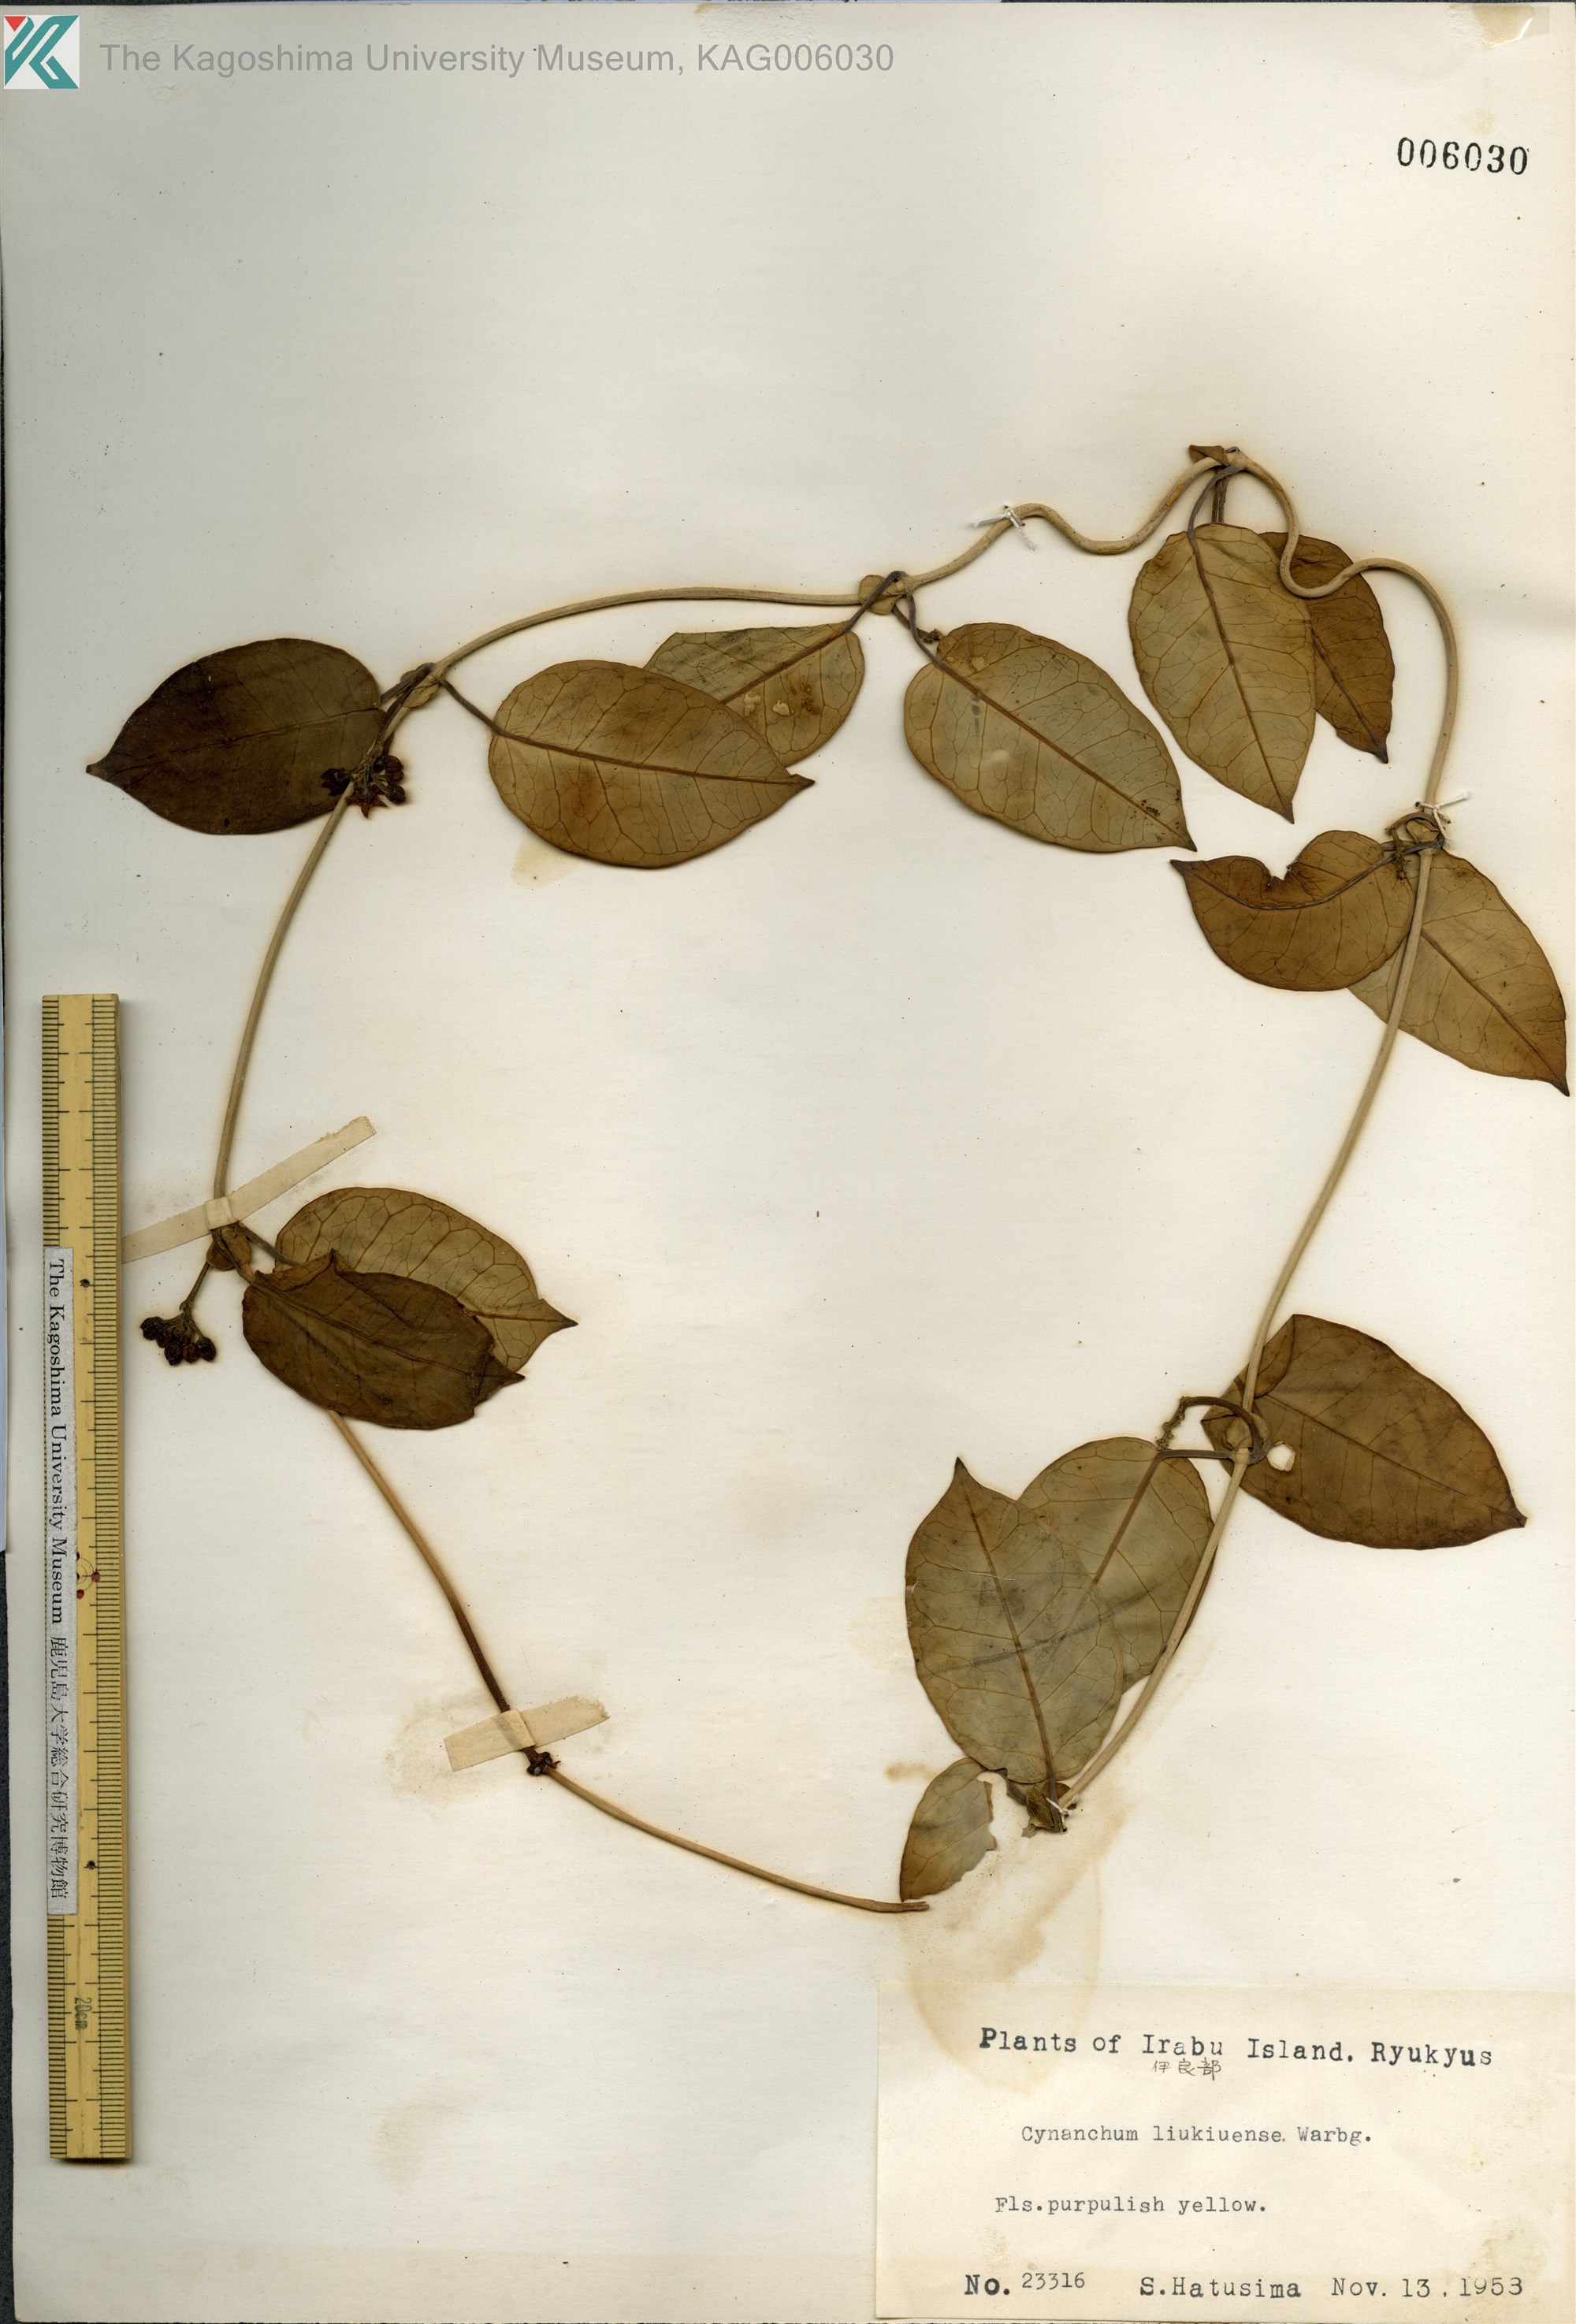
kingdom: Plantae
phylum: Tracheophyta
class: Magnoliopsida
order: Gentianales
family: Apocynaceae
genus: Cynanchum
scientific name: Cynanchum liukiuense
